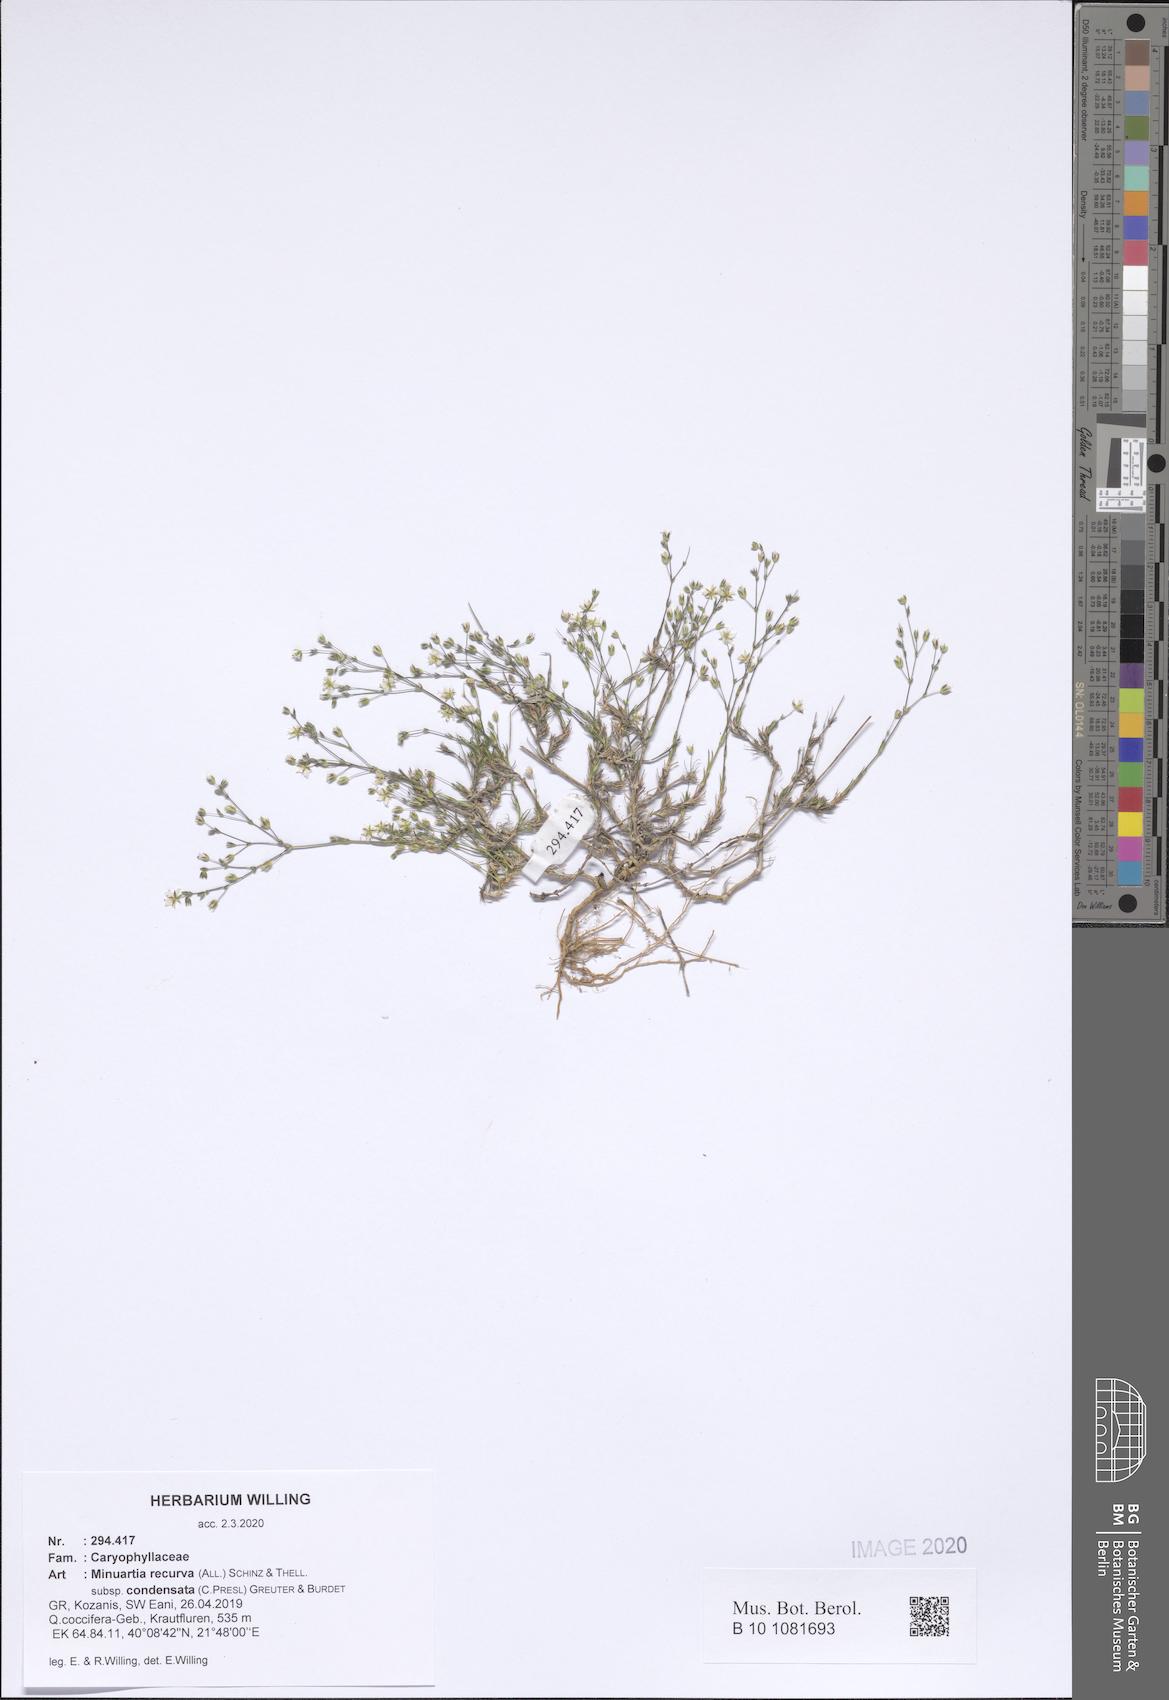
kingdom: Plantae
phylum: Tracheophyta
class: Magnoliopsida
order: Caryophyllales
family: Caryophyllaceae
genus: Minuartia
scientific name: Minuartia recurva
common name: Recurved sandwort
